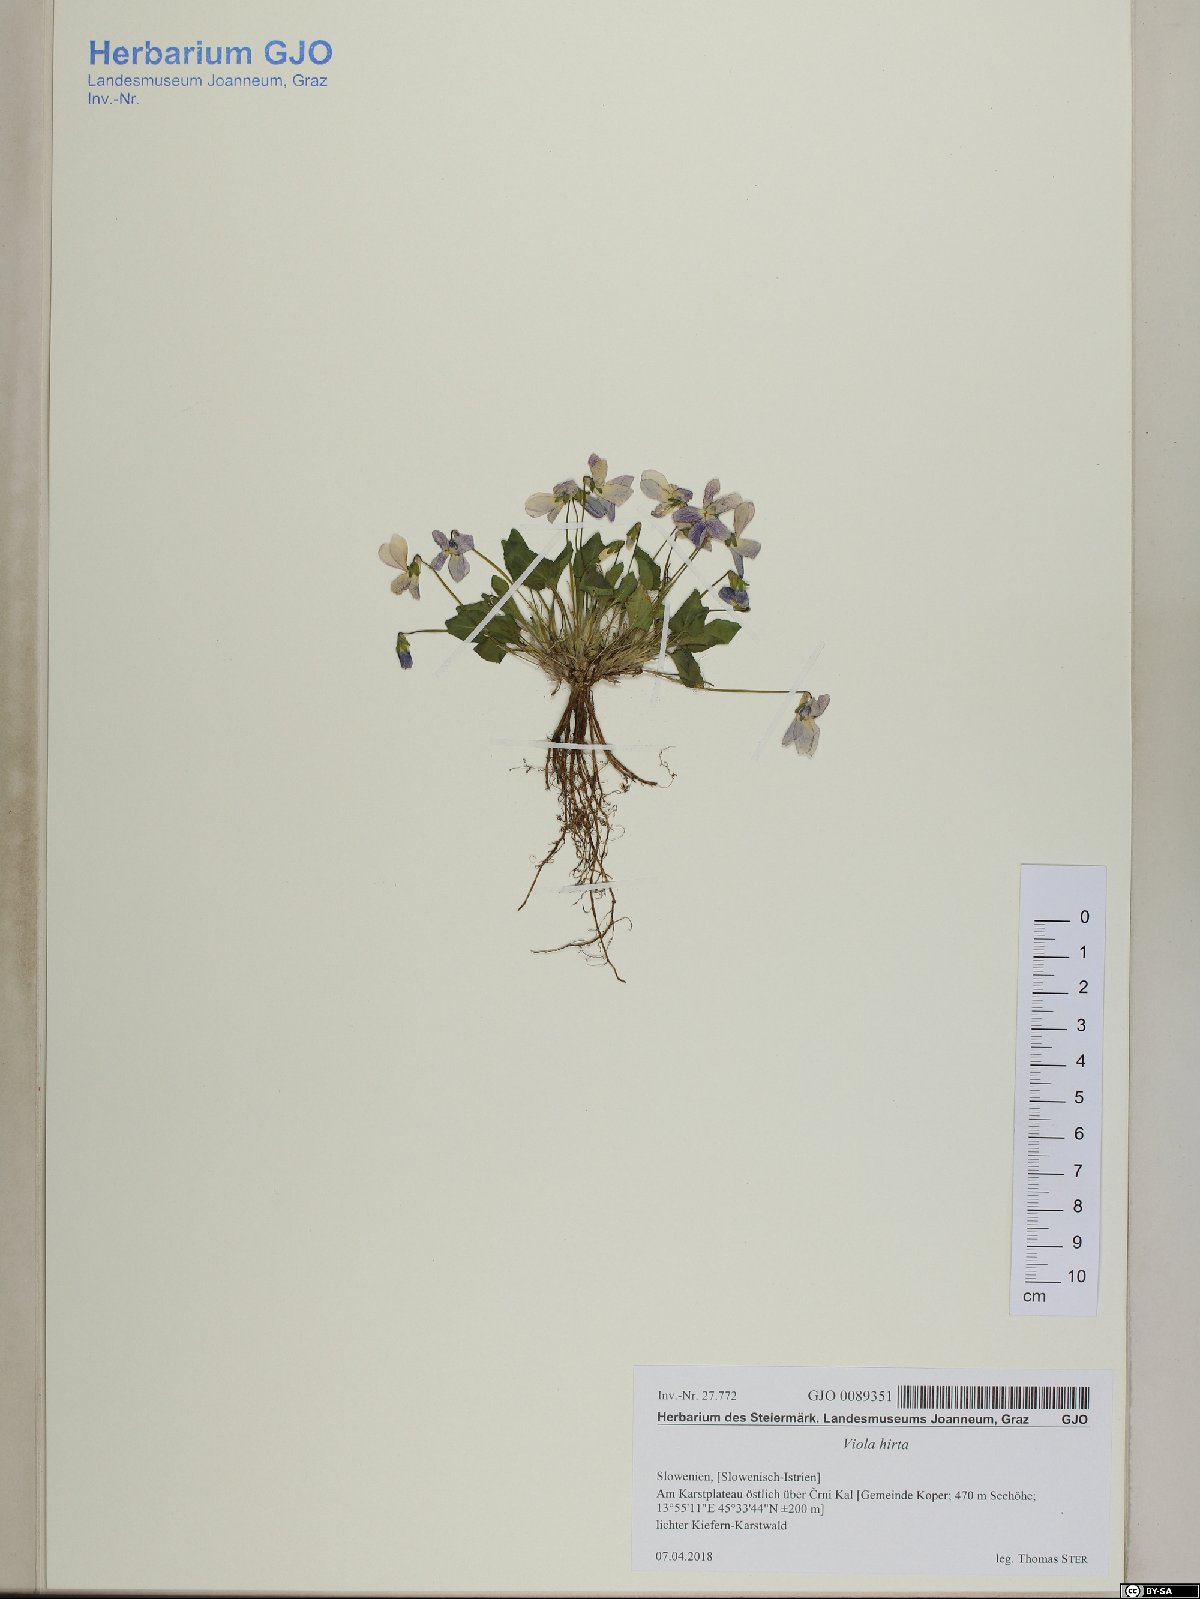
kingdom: Plantae
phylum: Tracheophyta
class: Magnoliopsida
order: Malpighiales
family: Violaceae
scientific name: Violaceae
